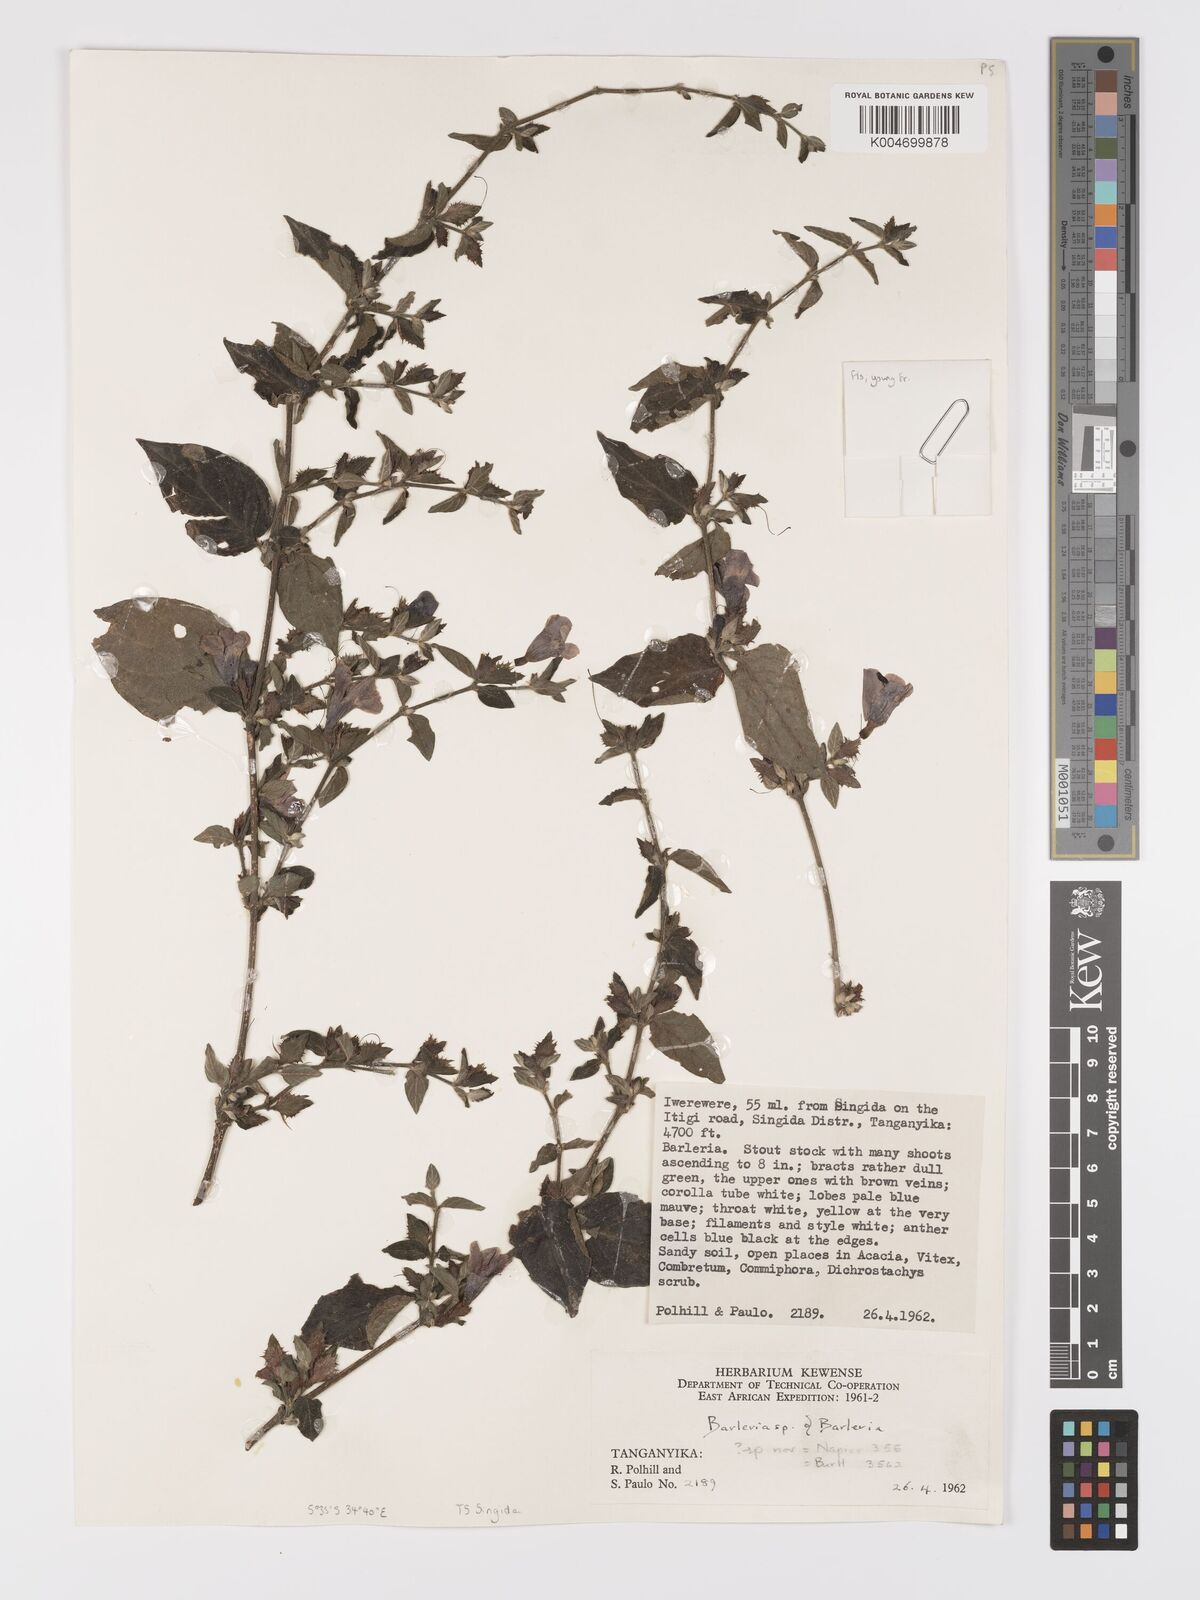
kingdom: Plantae
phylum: Tracheophyta
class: Magnoliopsida
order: Lamiales
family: Acanthaceae
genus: Barleria
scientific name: Barleria ventricosa
